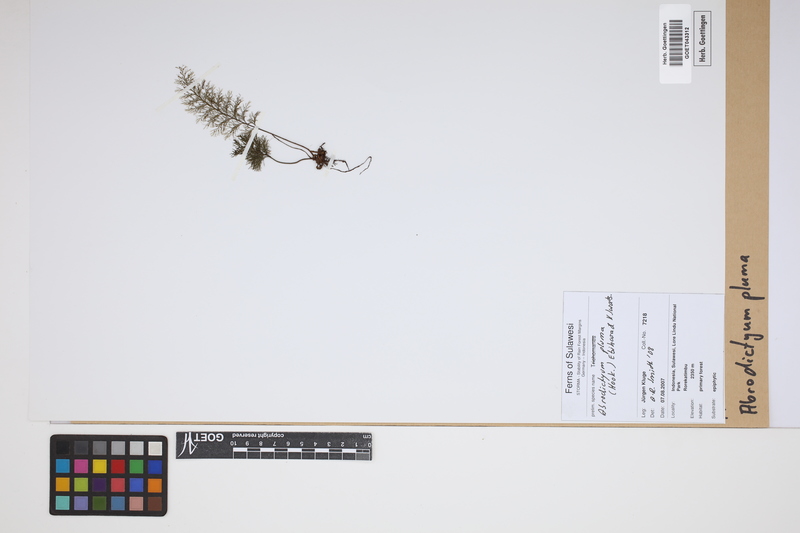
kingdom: Plantae
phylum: Tracheophyta
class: Polypodiopsida
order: Hymenophyllales
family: Hymenophyllaceae
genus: Abrodictyum
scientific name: Abrodictyum pluma
